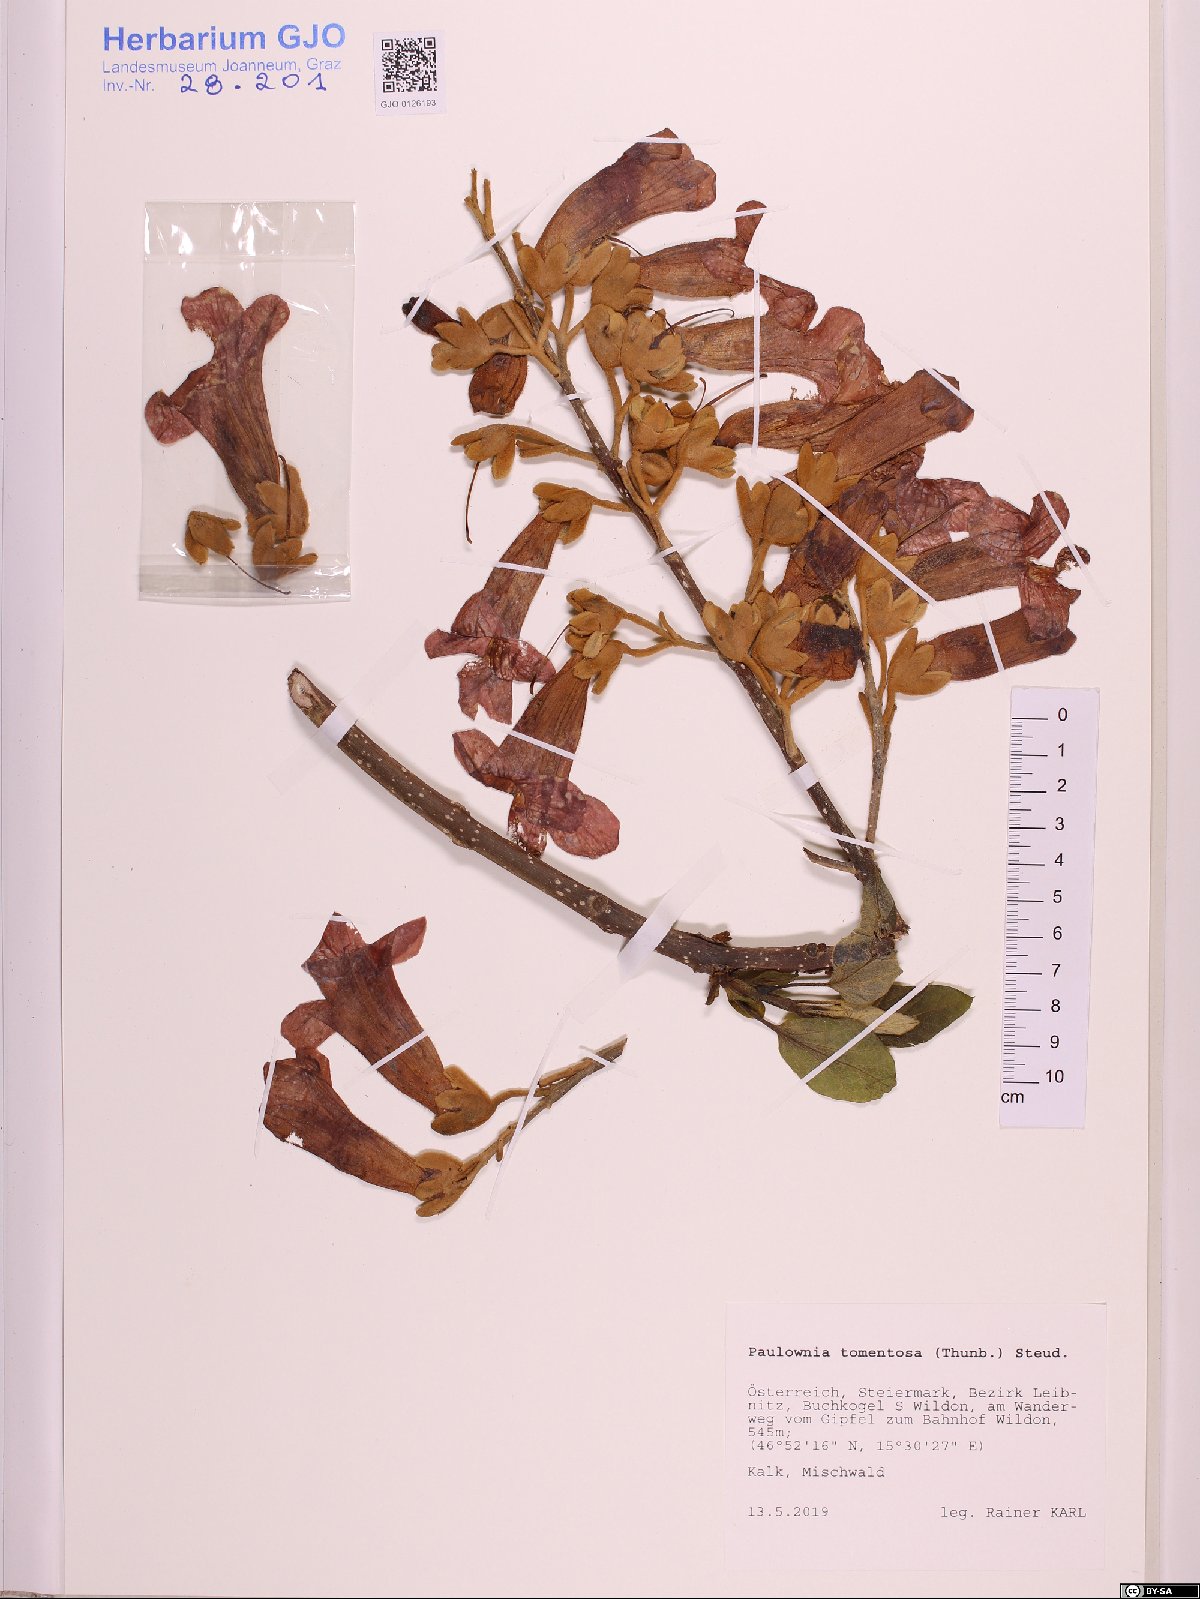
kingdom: Plantae
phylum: Tracheophyta
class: Magnoliopsida
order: Lamiales
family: Paulowniaceae
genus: Paulownia
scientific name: Paulownia tomentosa
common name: Foxglove-tree
